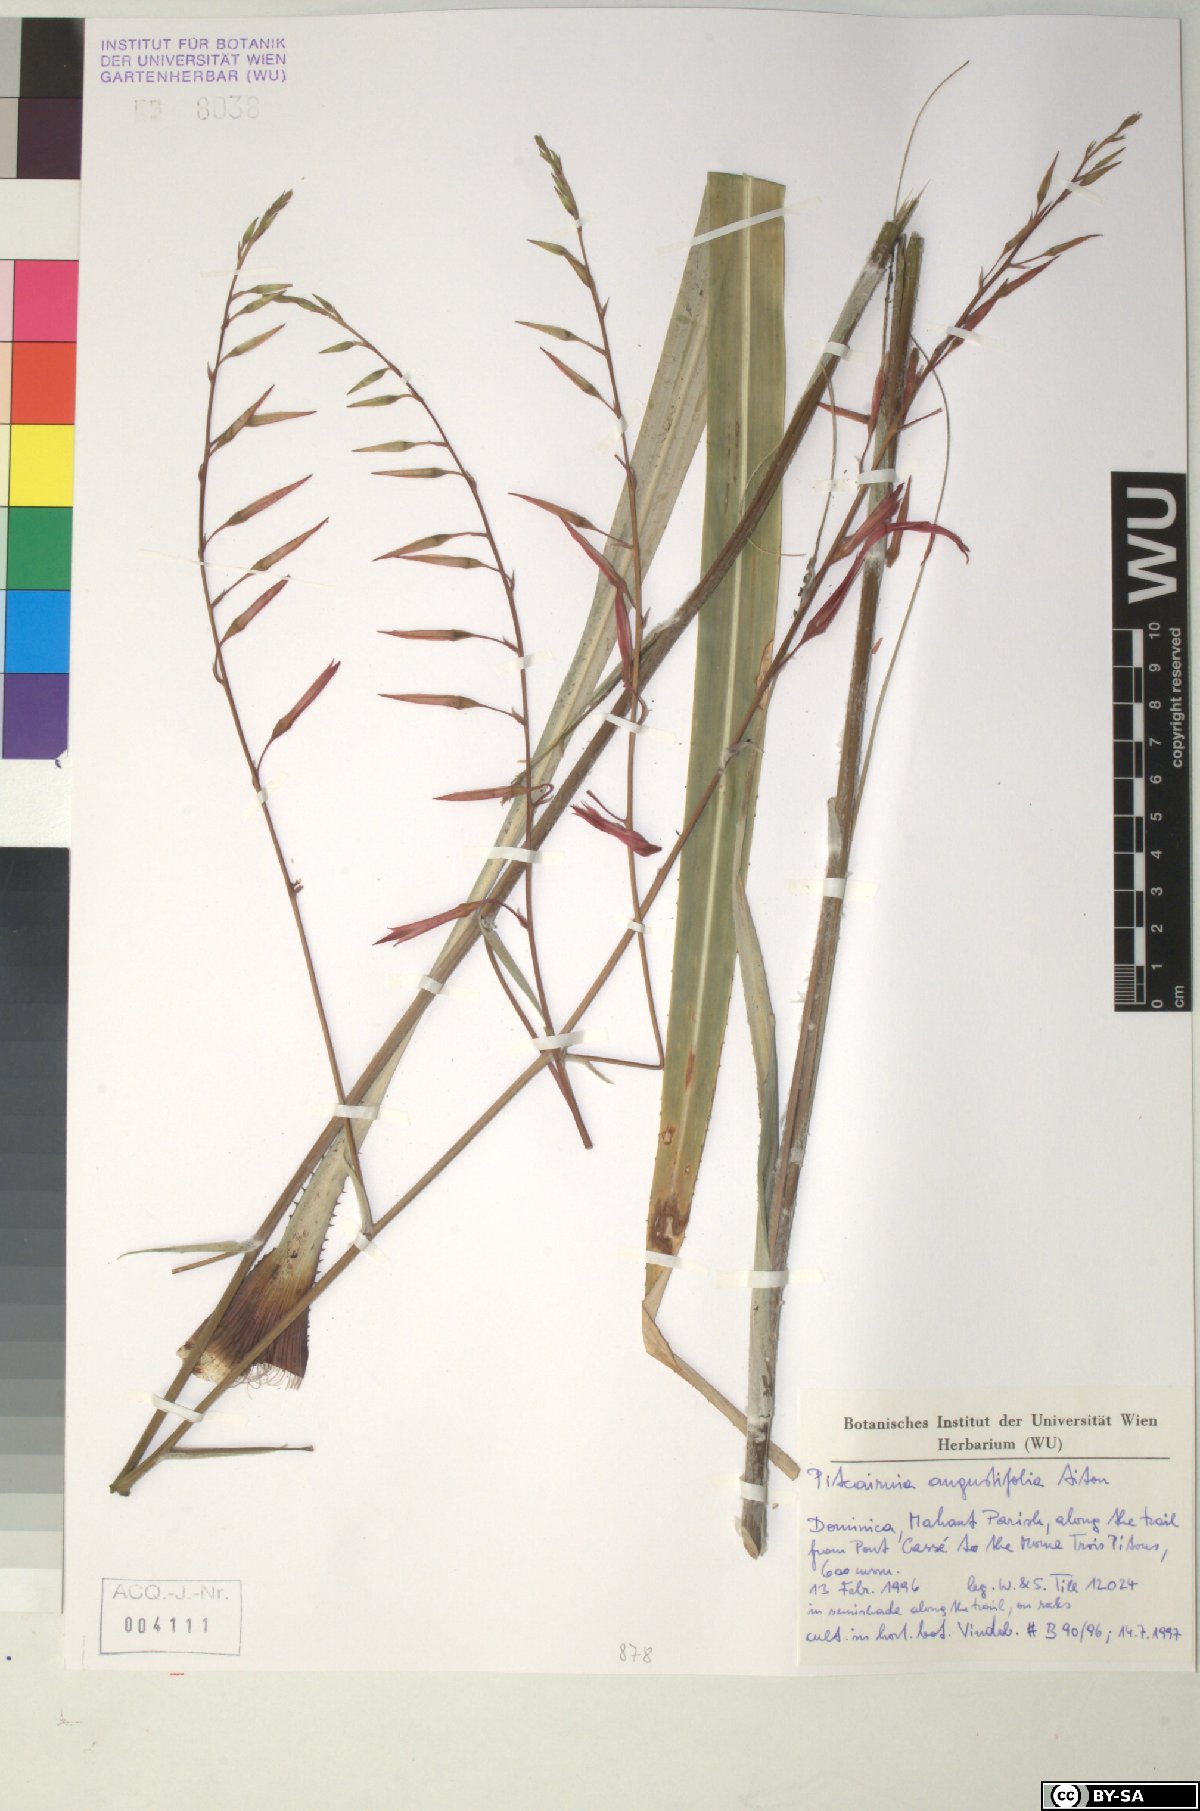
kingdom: Plantae
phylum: Tracheophyta
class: Liliopsida
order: Poales
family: Bromeliaceae
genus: Pitcairnia
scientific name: Pitcairnia angustifolia
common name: Clapper
